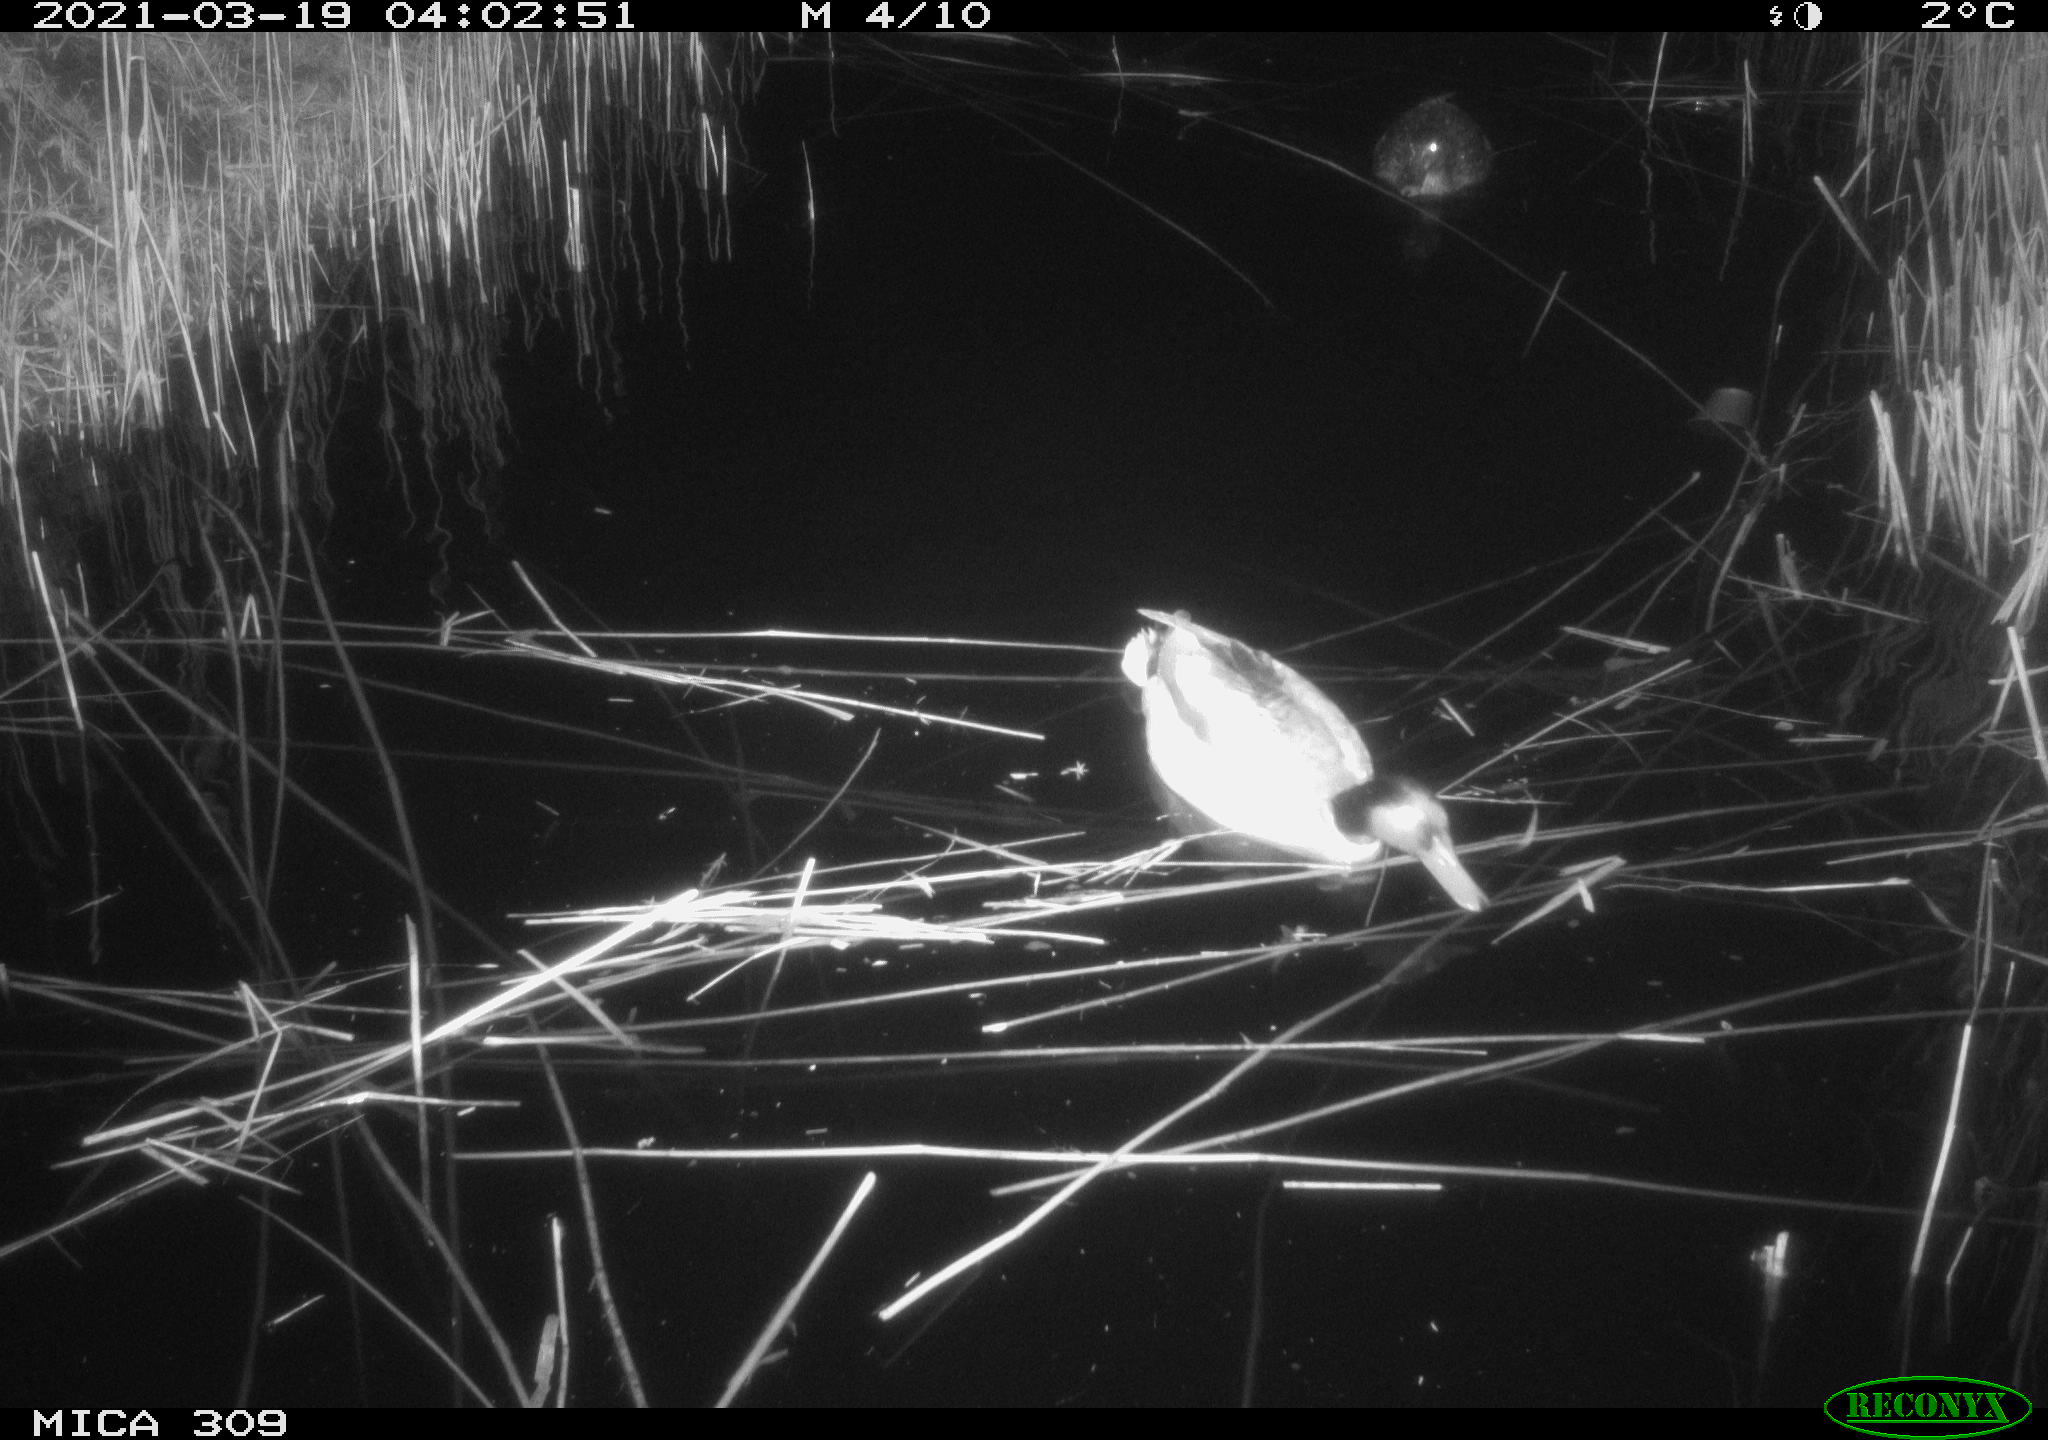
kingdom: Animalia
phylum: Chordata
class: Aves
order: Anseriformes
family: Anatidae
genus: Anas
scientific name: Anas platyrhynchos
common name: Mallard
